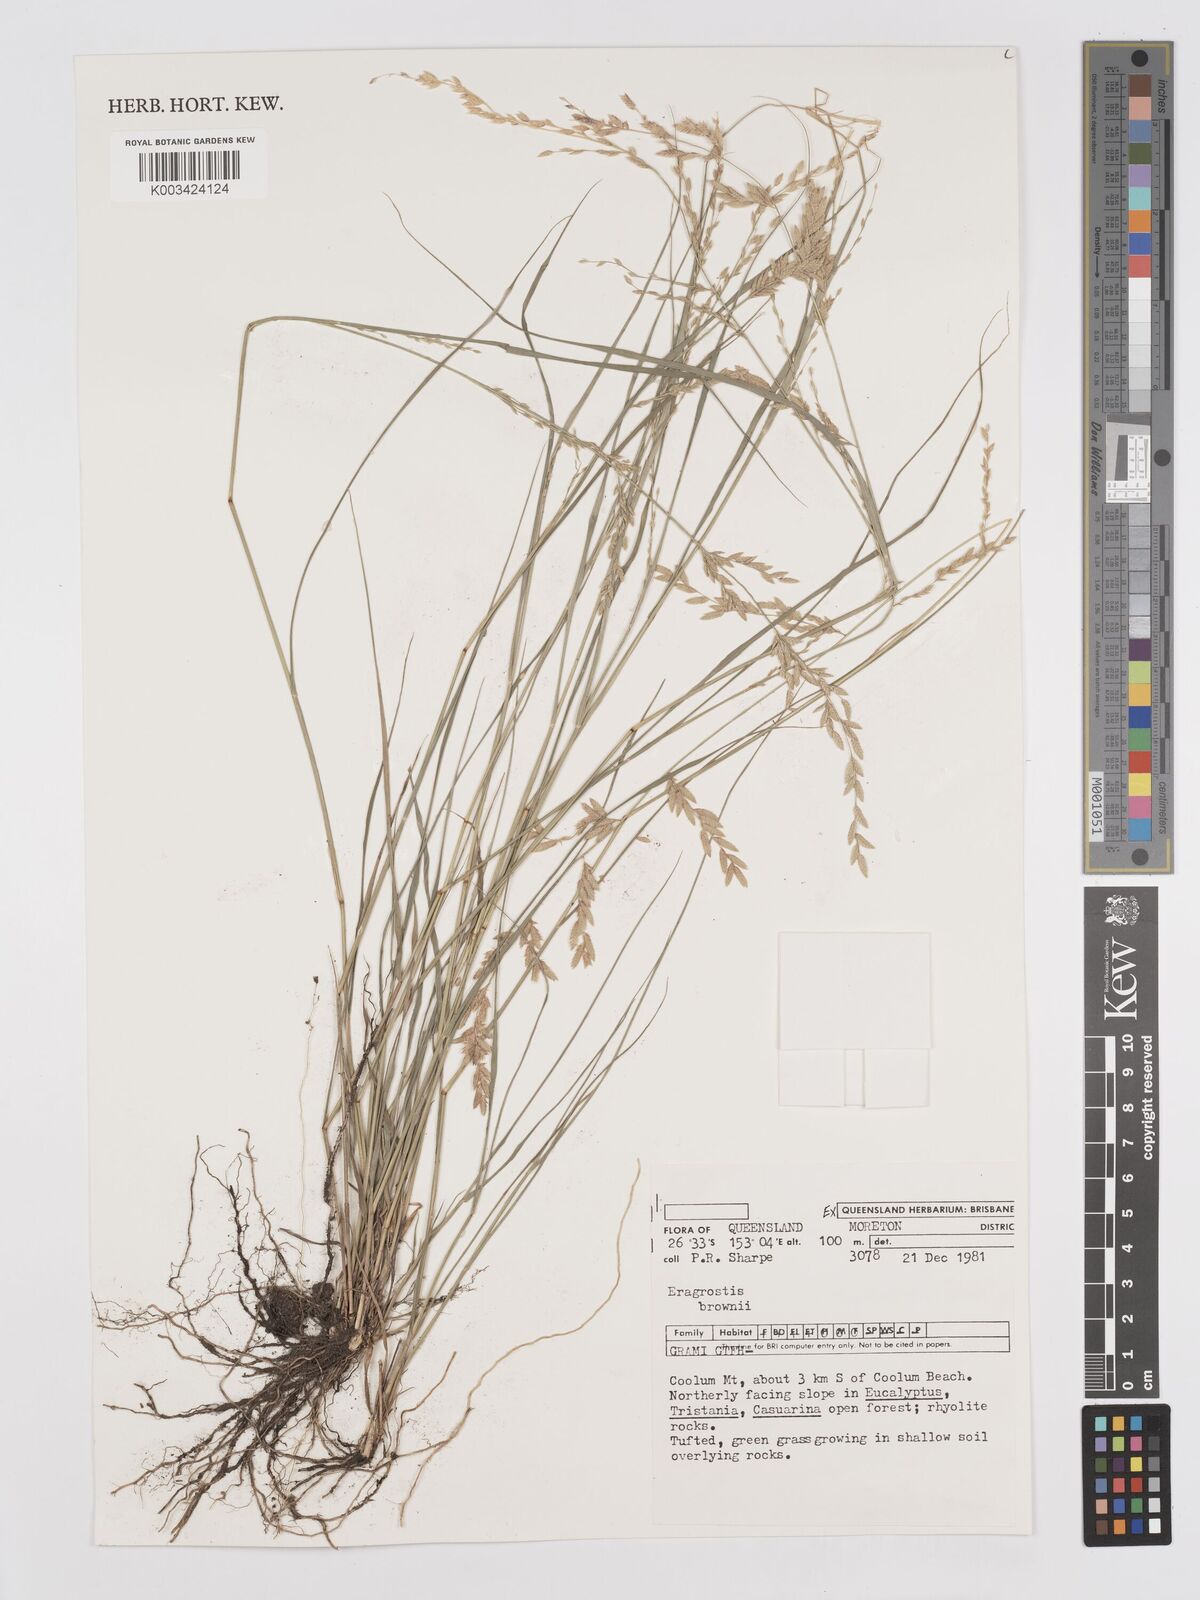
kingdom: Plantae
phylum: Tracheophyta
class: Liliopsida
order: Poales
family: Poaceae
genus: Eragrostis
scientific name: Eragrostis brownii
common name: Lovegrass
